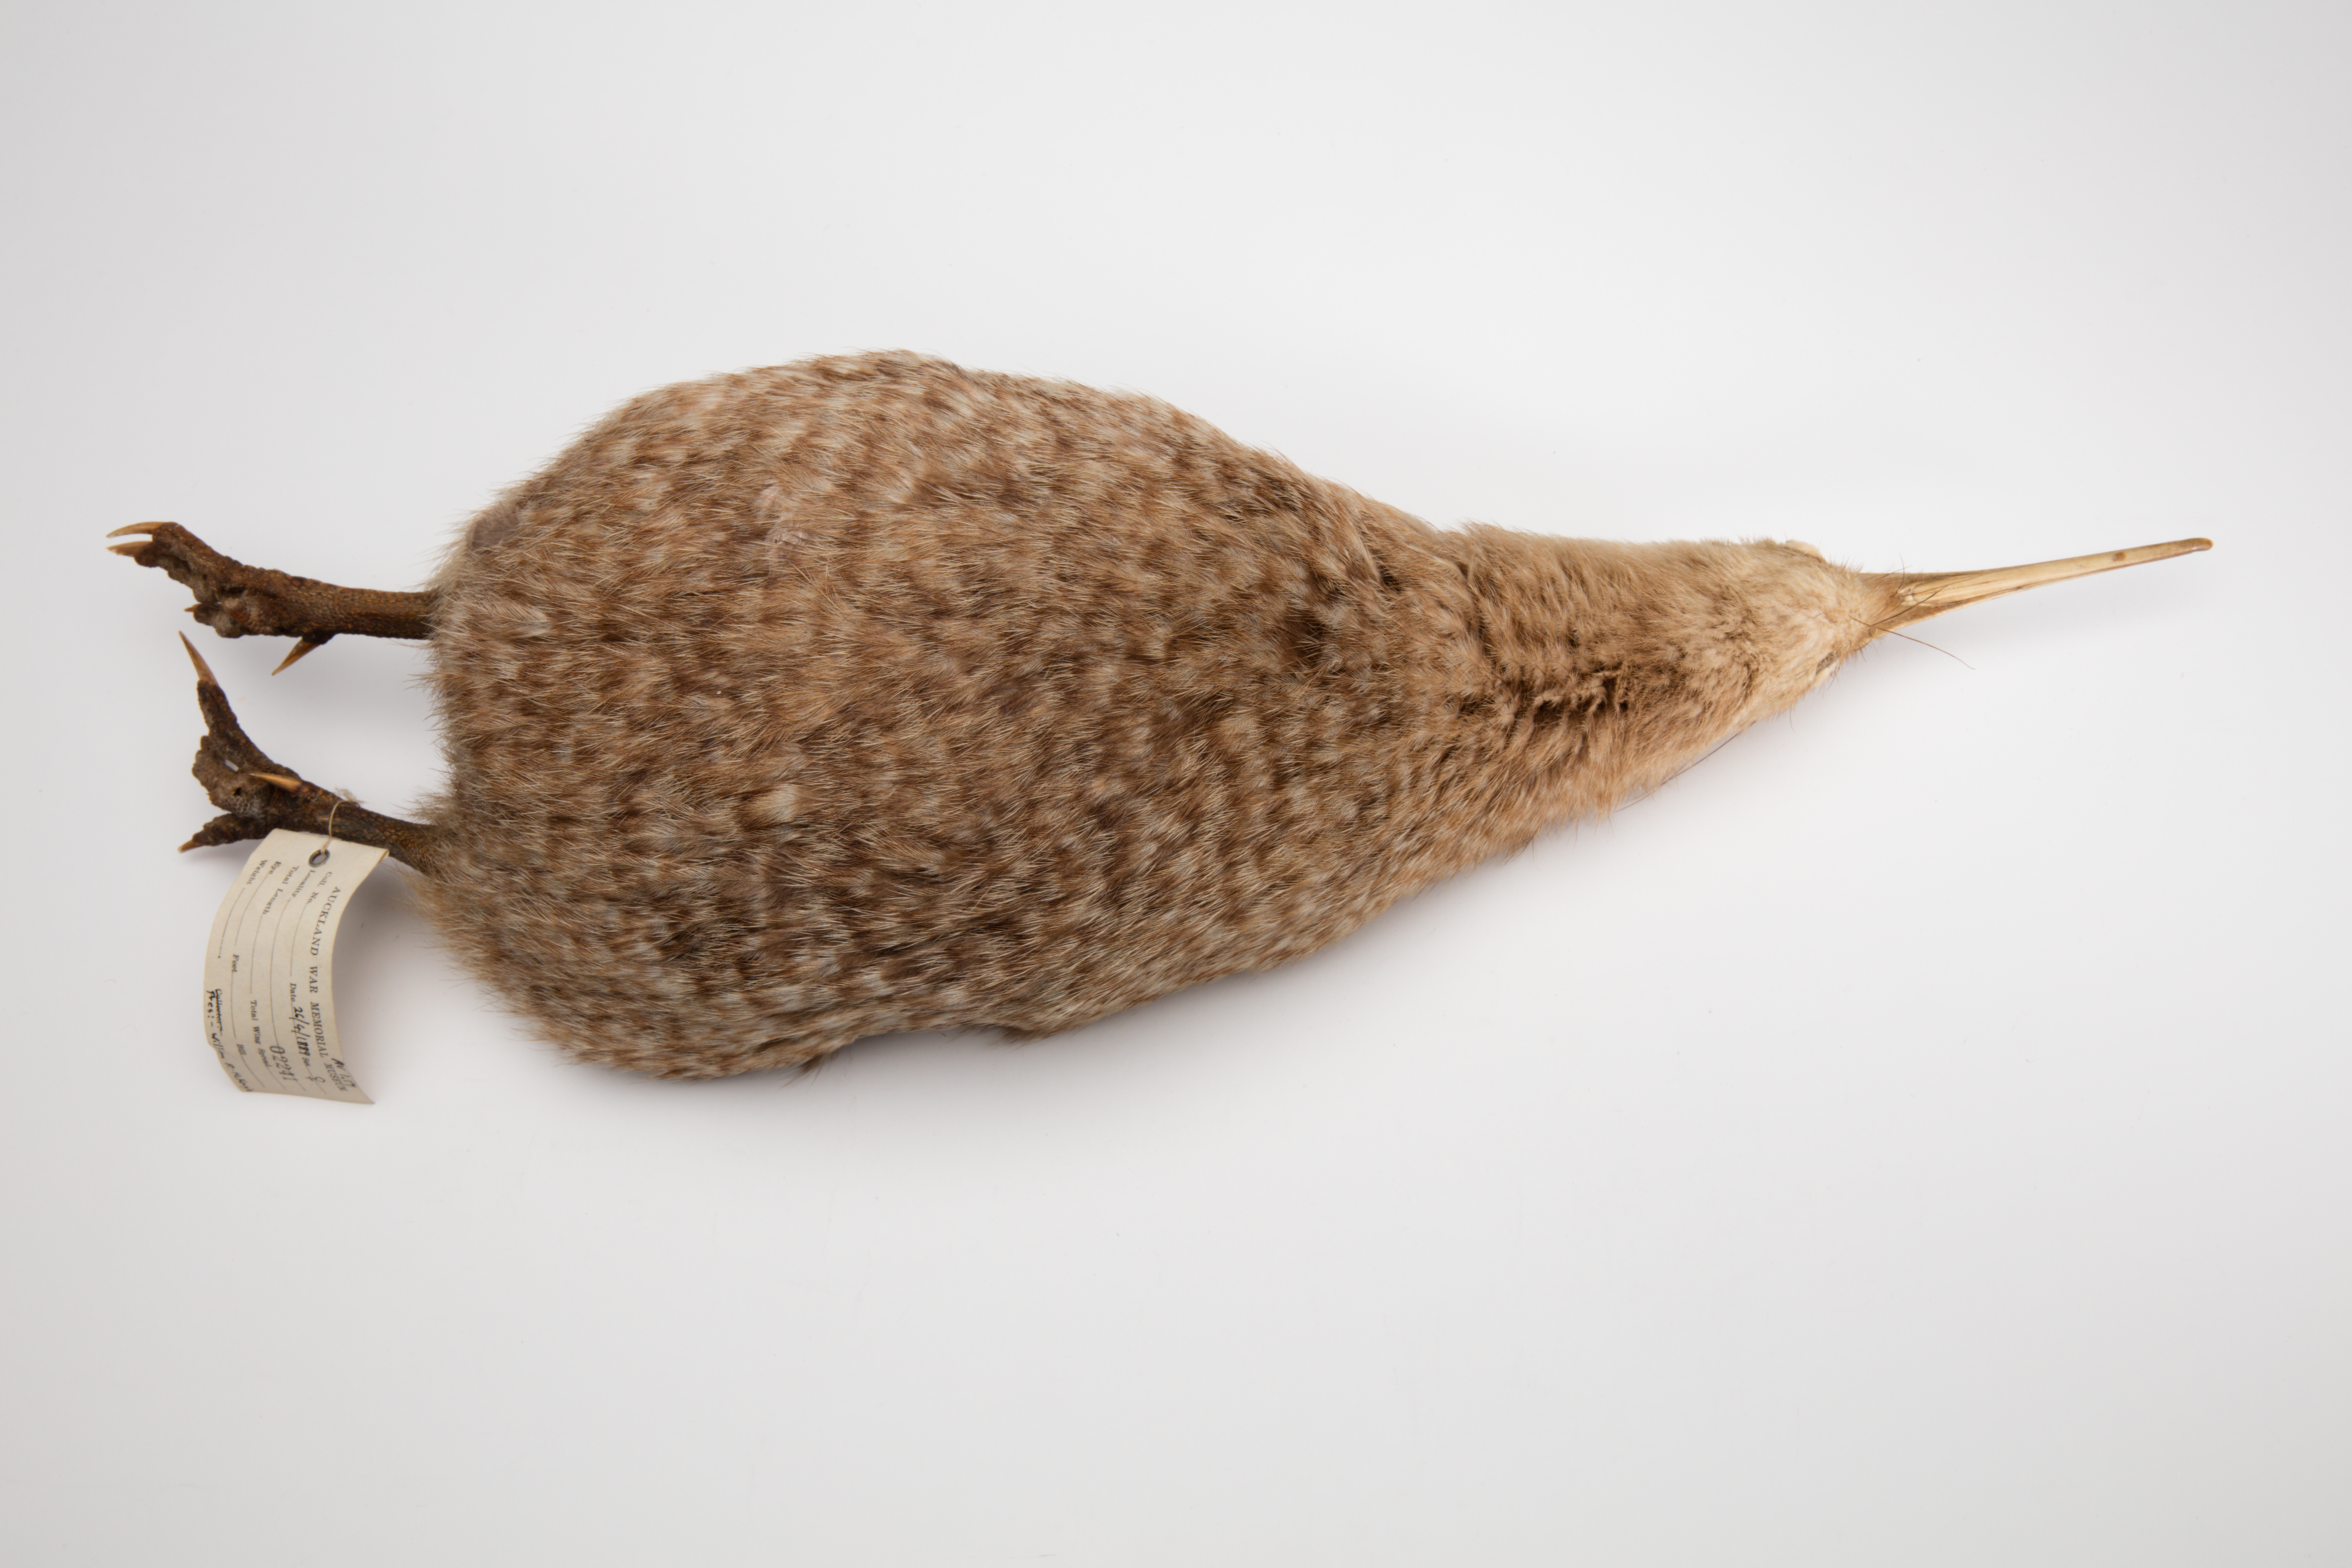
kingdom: Animalia
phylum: Chordata
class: Aves
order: Apterygiformes
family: Apterygidae
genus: Apteryx
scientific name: Apteryx owenii
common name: Little spotted kiwi
